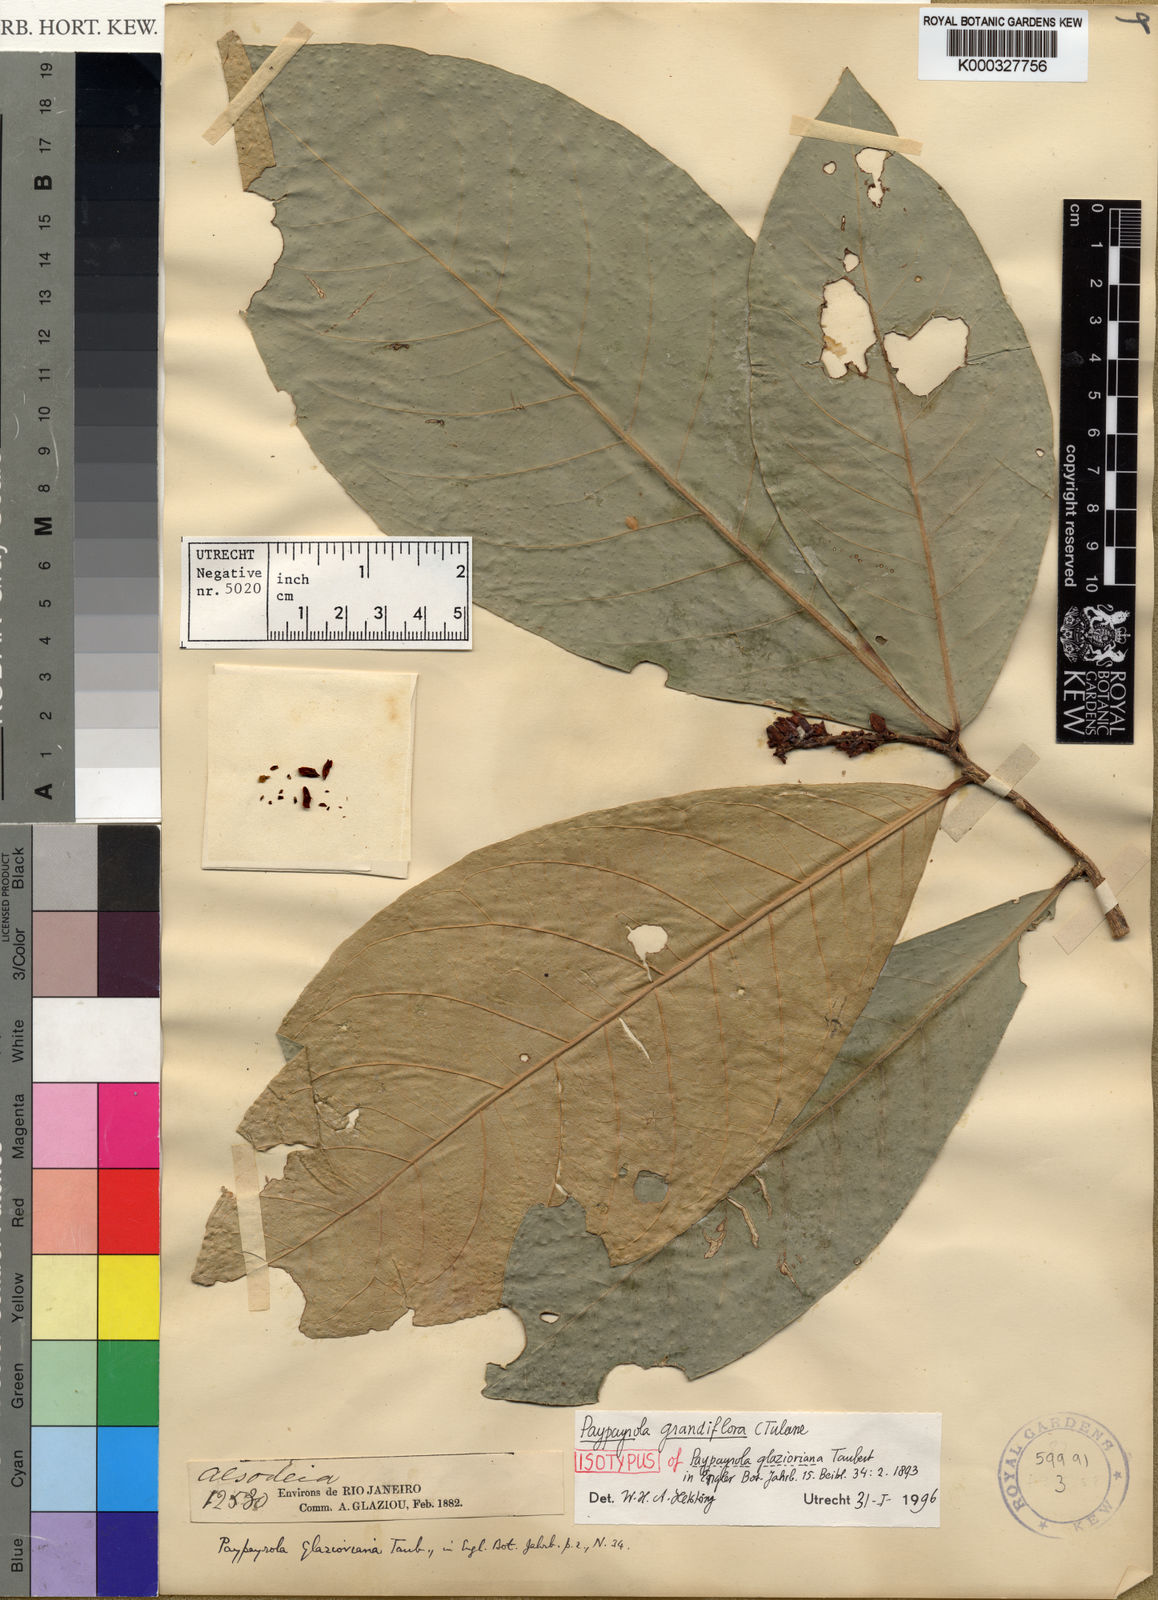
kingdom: Plantae
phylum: Tracheophyta
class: Magnoliopsida
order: Malpighiales
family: Violaceae
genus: Paypayrola
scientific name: Paypayrola grandiflora
